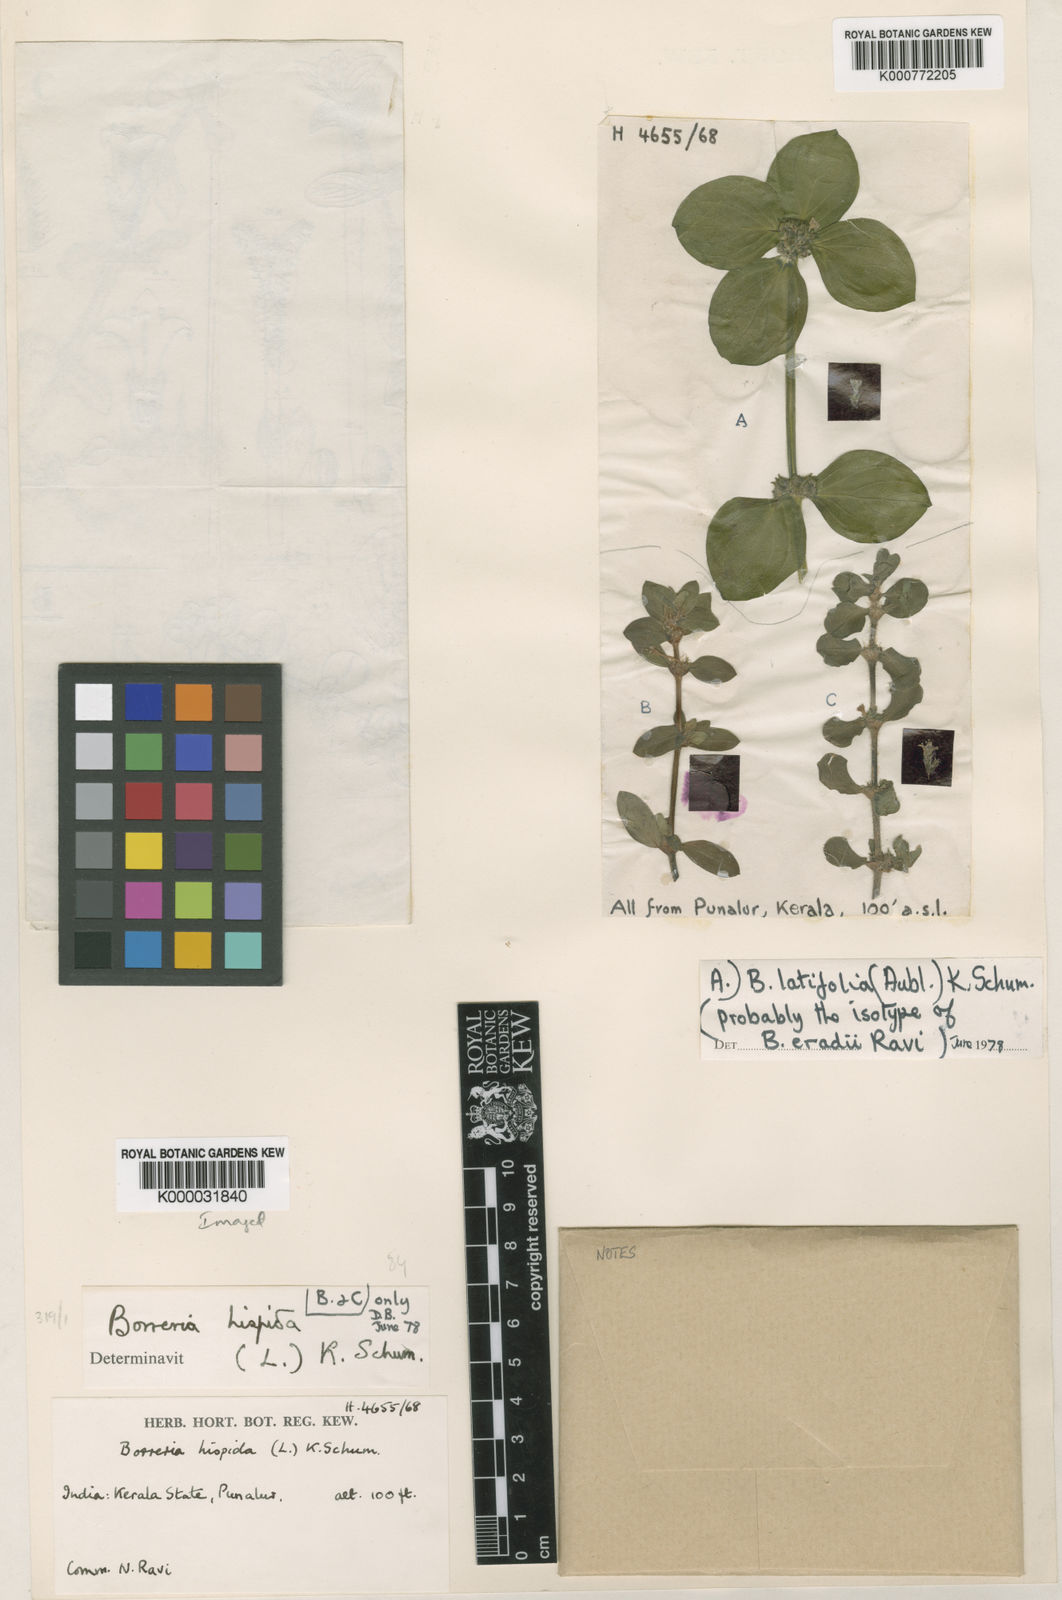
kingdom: Plantae
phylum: Tracheophyta
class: Magnoliopsida
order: Gentianales
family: Rubiaceae
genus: Spermacoce
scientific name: Spermacoce alata
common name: Winged false buttonweed
